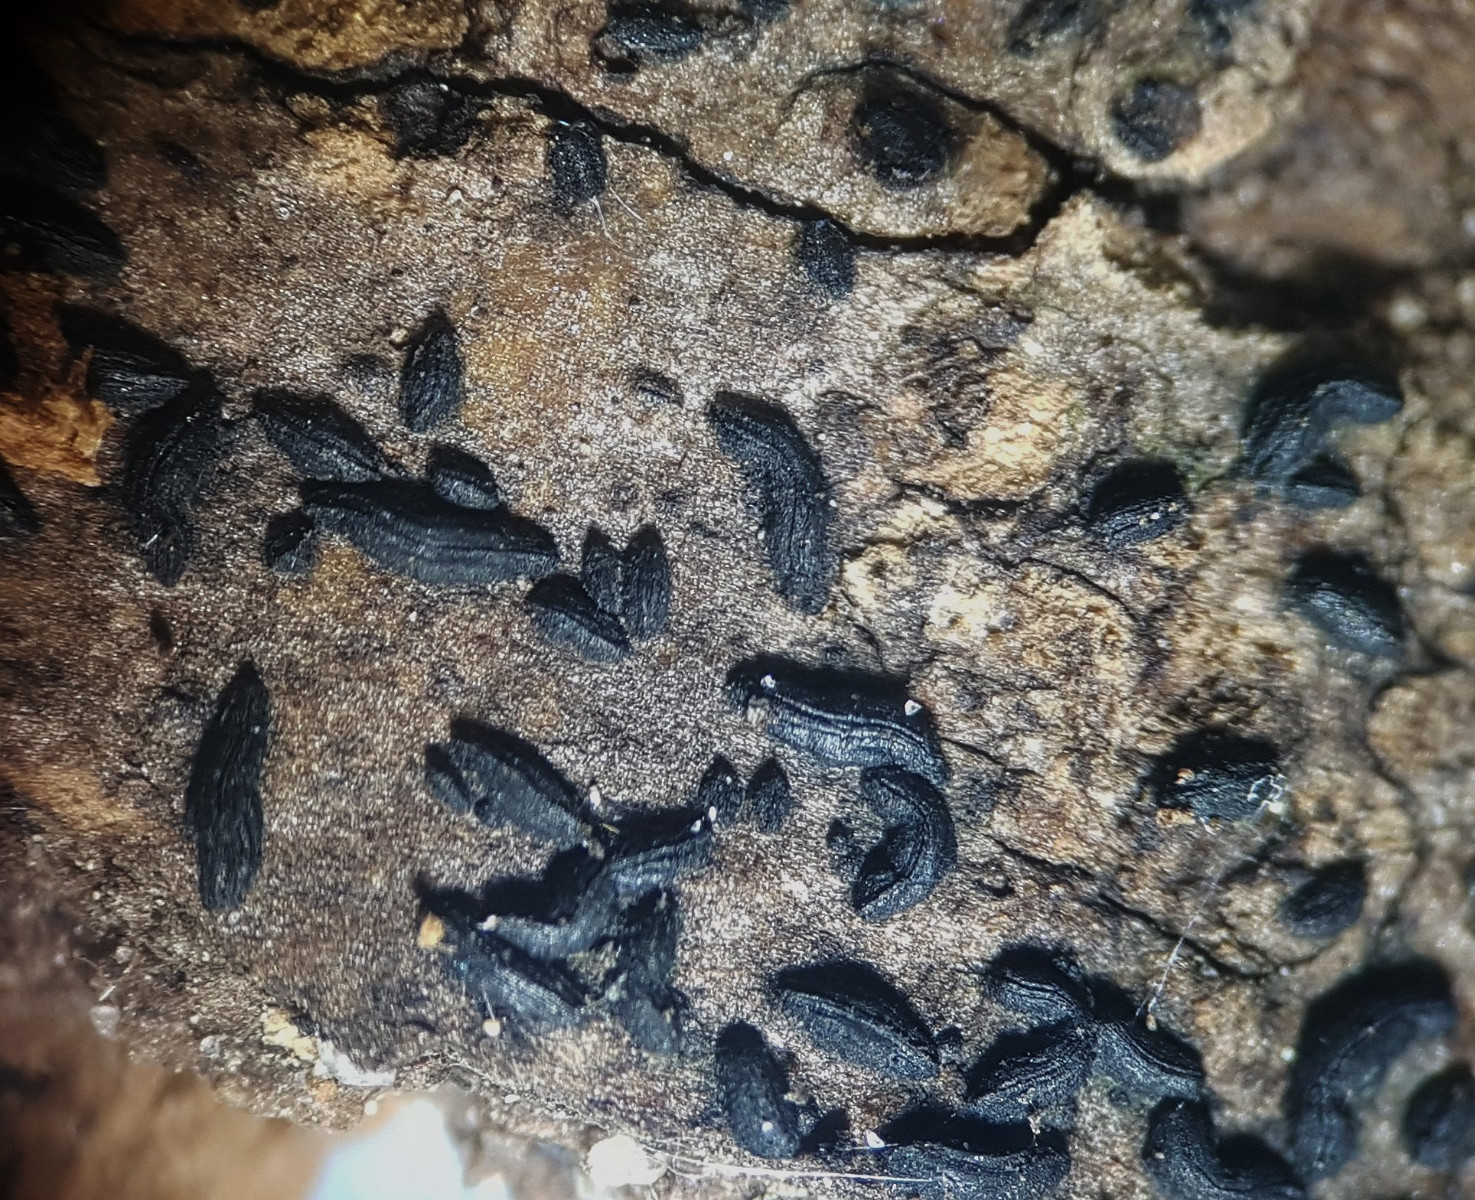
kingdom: Fungi
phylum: Ascomycota
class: Dothideomycetes
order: Hysteriales
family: Hysteriaceae
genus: Hysterium
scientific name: Hysterium pulicare
